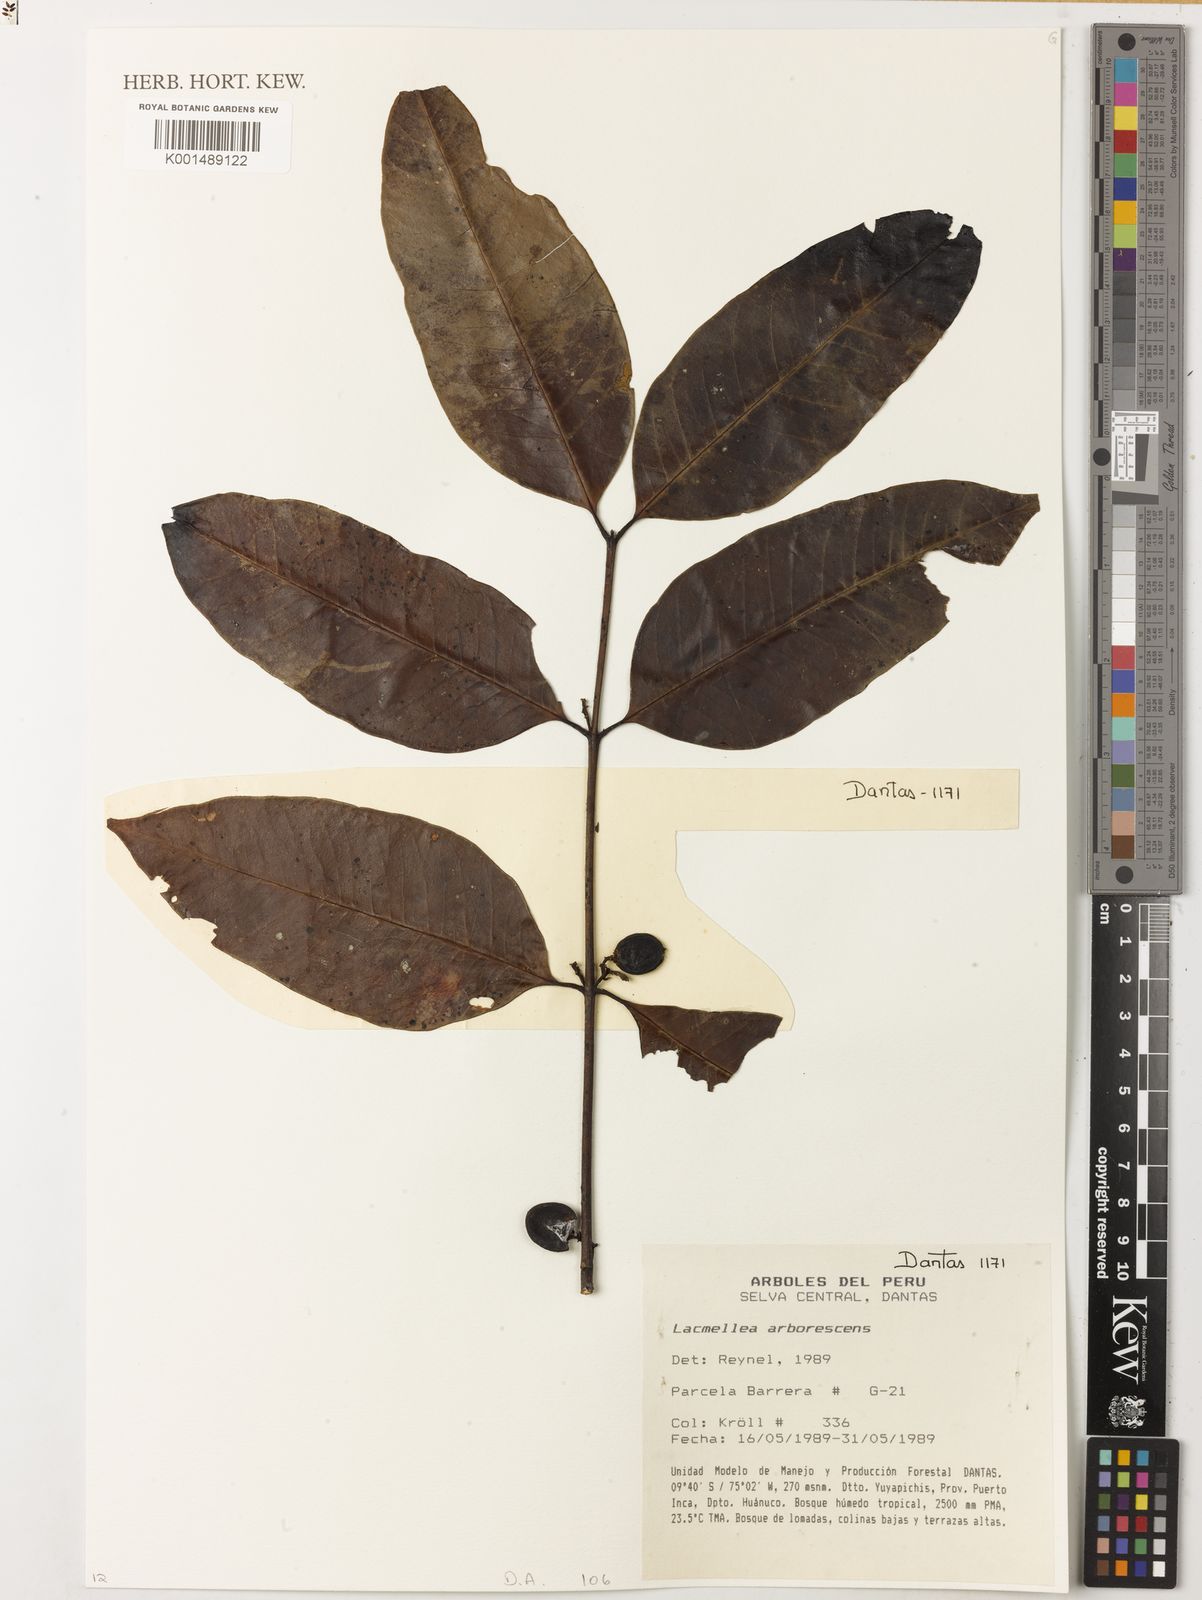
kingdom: Plantae
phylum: Tracheophyta
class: Magnoliopsida
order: Gentianales
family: Apocynaceae
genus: Lacmellea
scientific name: Lacmellea arborescens
